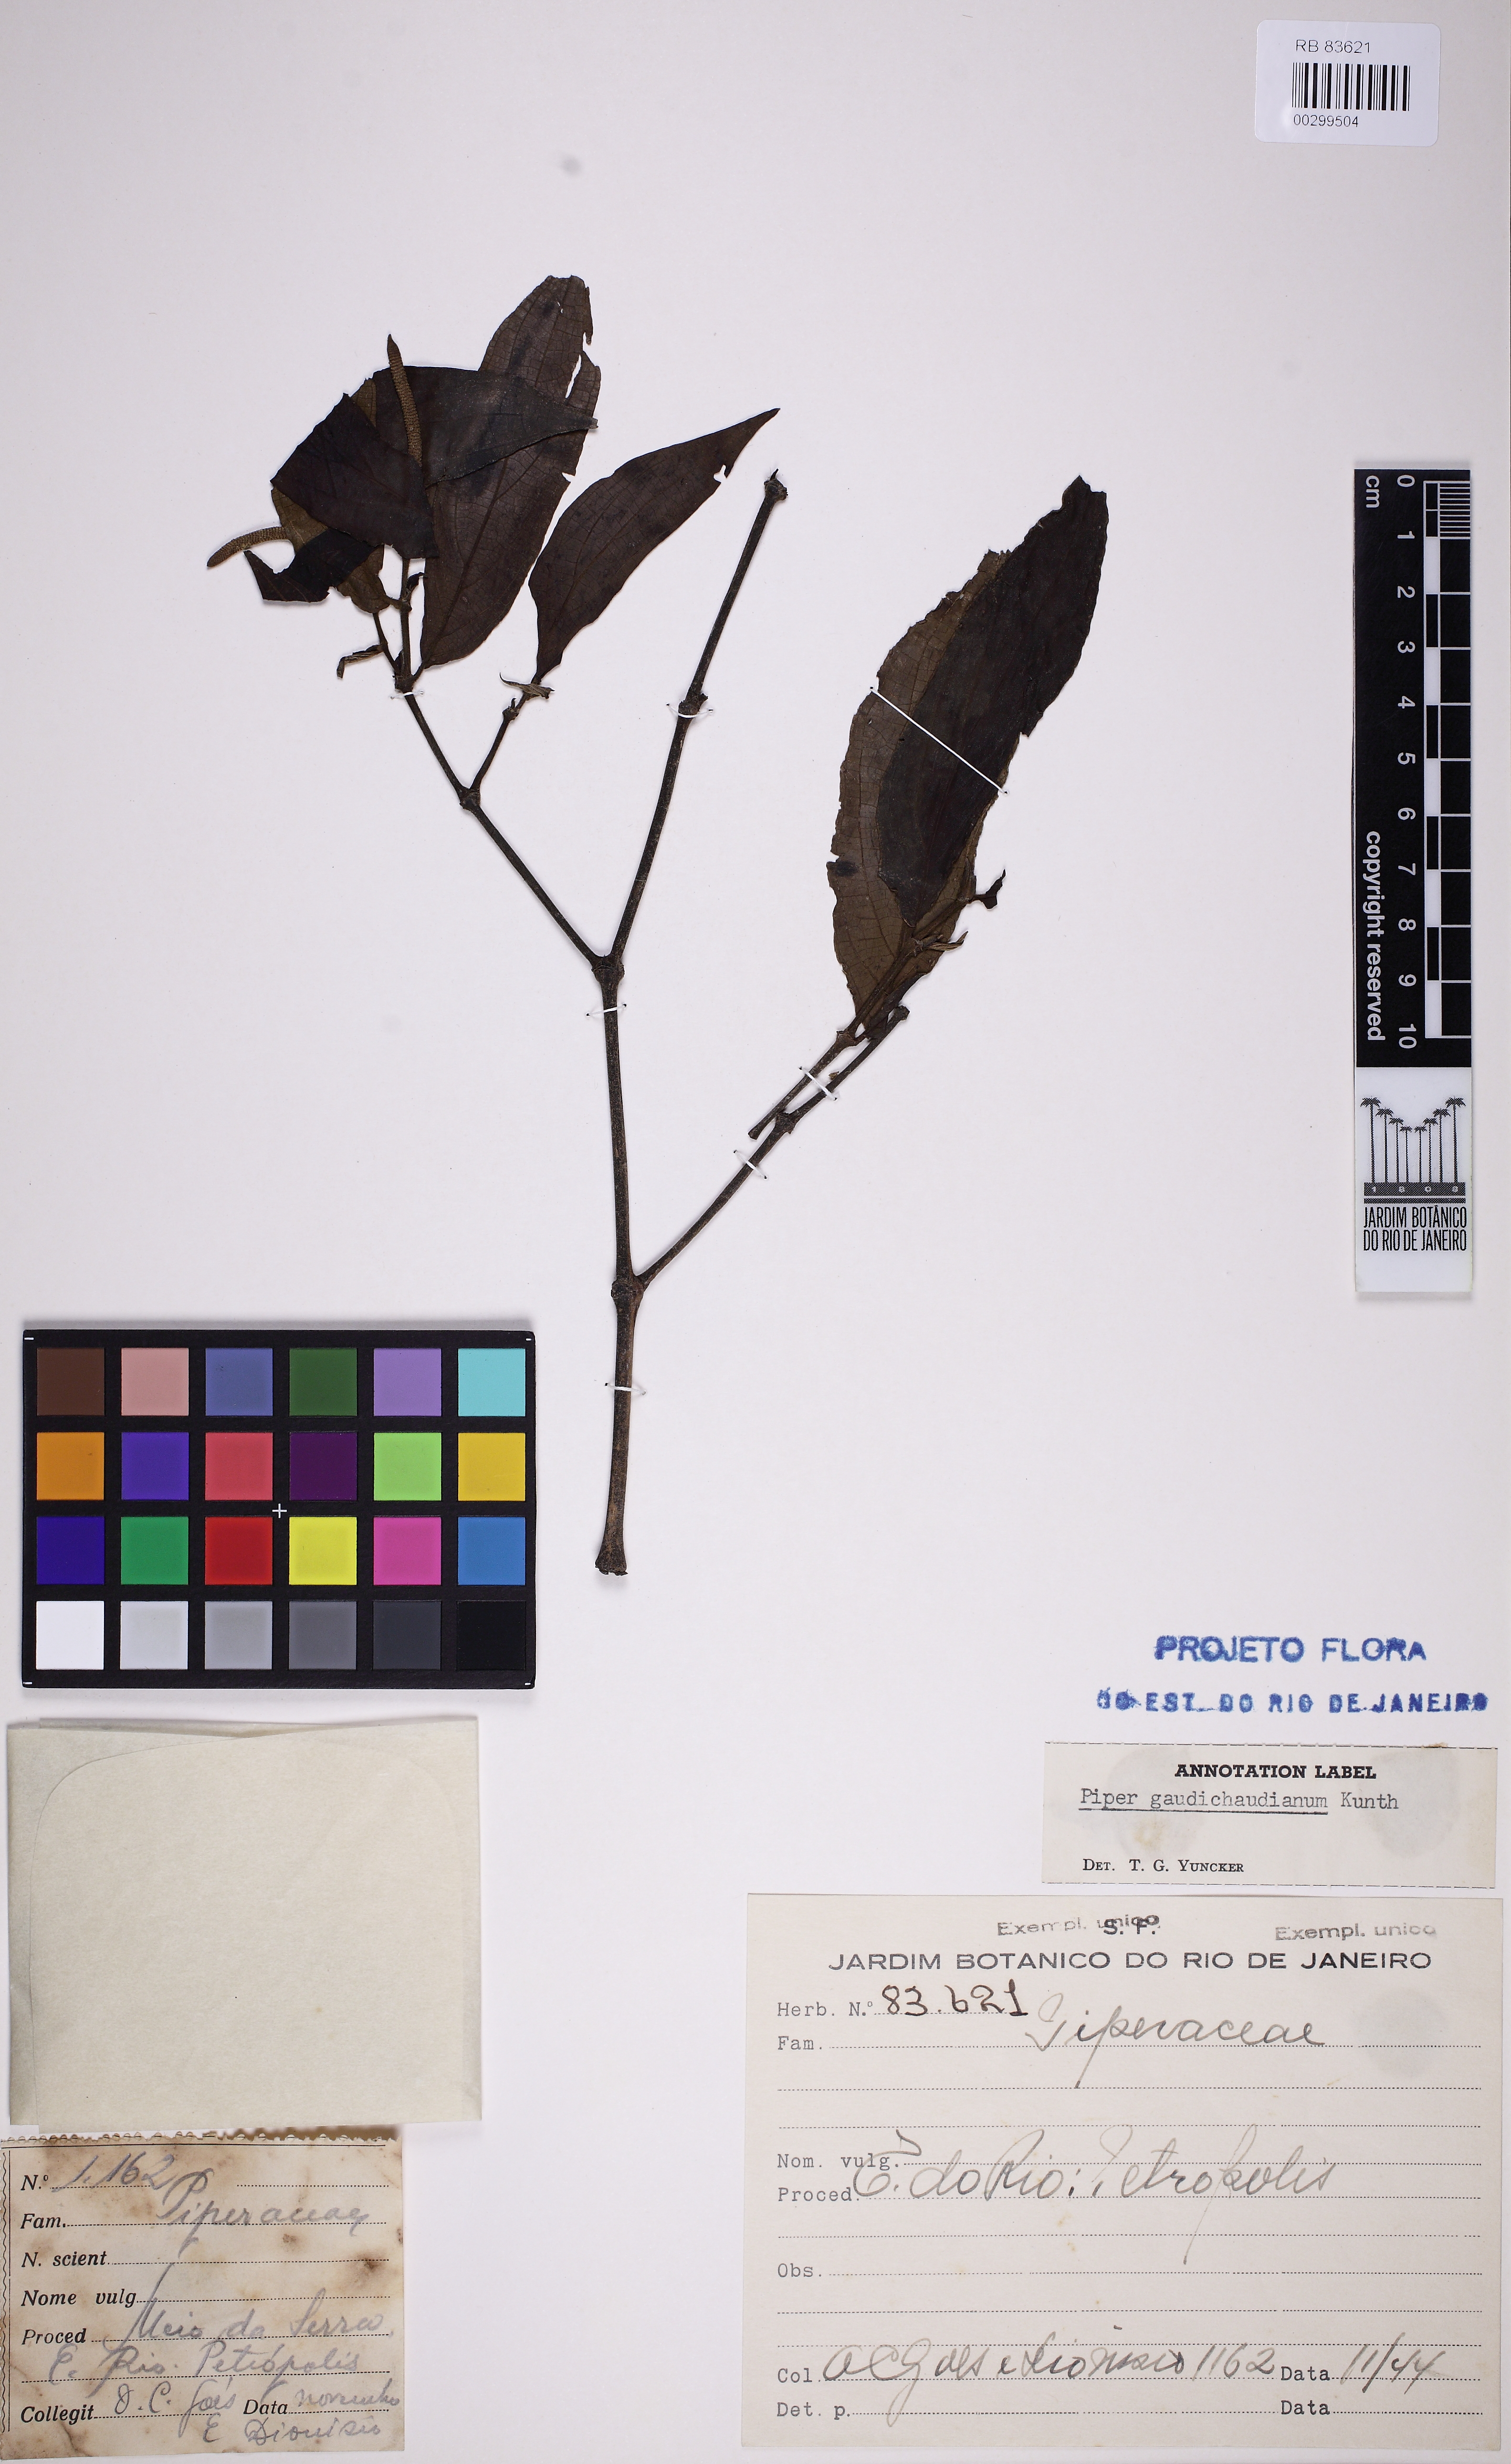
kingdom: Plantae
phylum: Tracheophyta
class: Magnoliopsida
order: Piperales
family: Piperaceae
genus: Piper
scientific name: Piper gaudichaudianum
